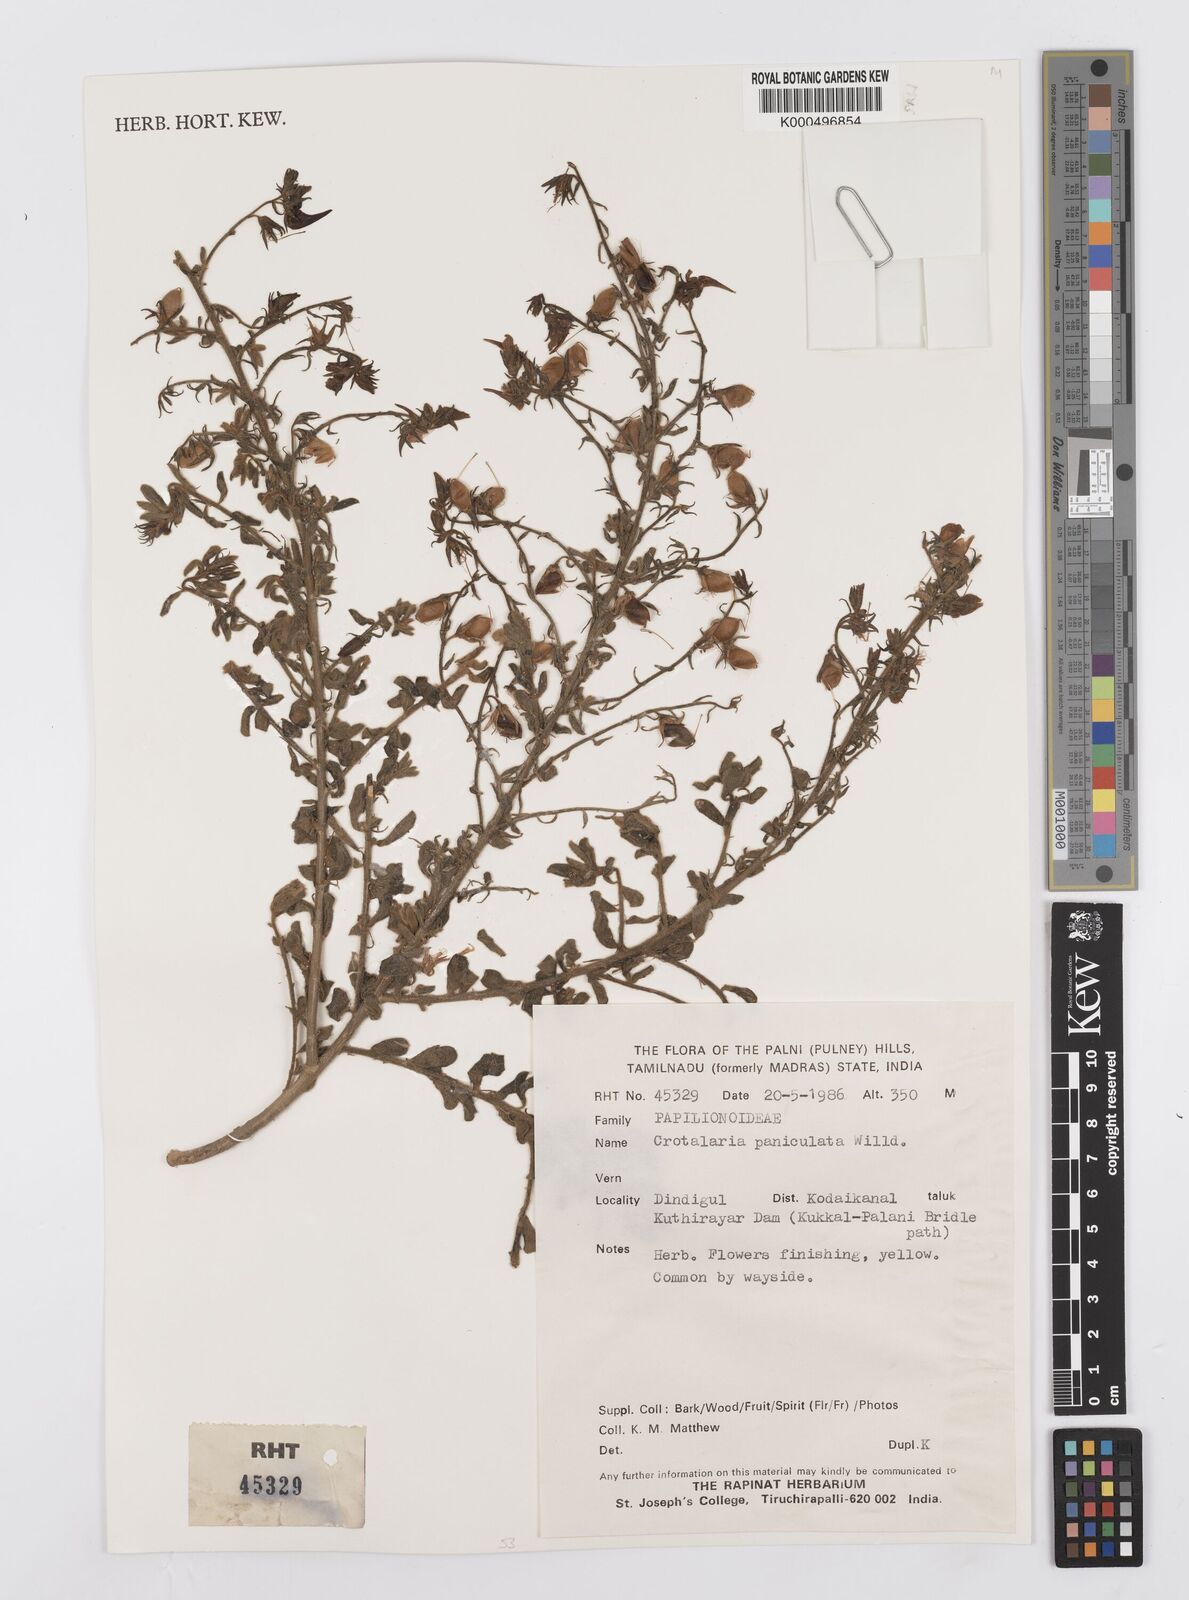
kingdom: Plantae
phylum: Tracheophyta
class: Magnoliopsida
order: Fabales
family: Fabaceae
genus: Crotalaria
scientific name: Crotalaria paniculata
